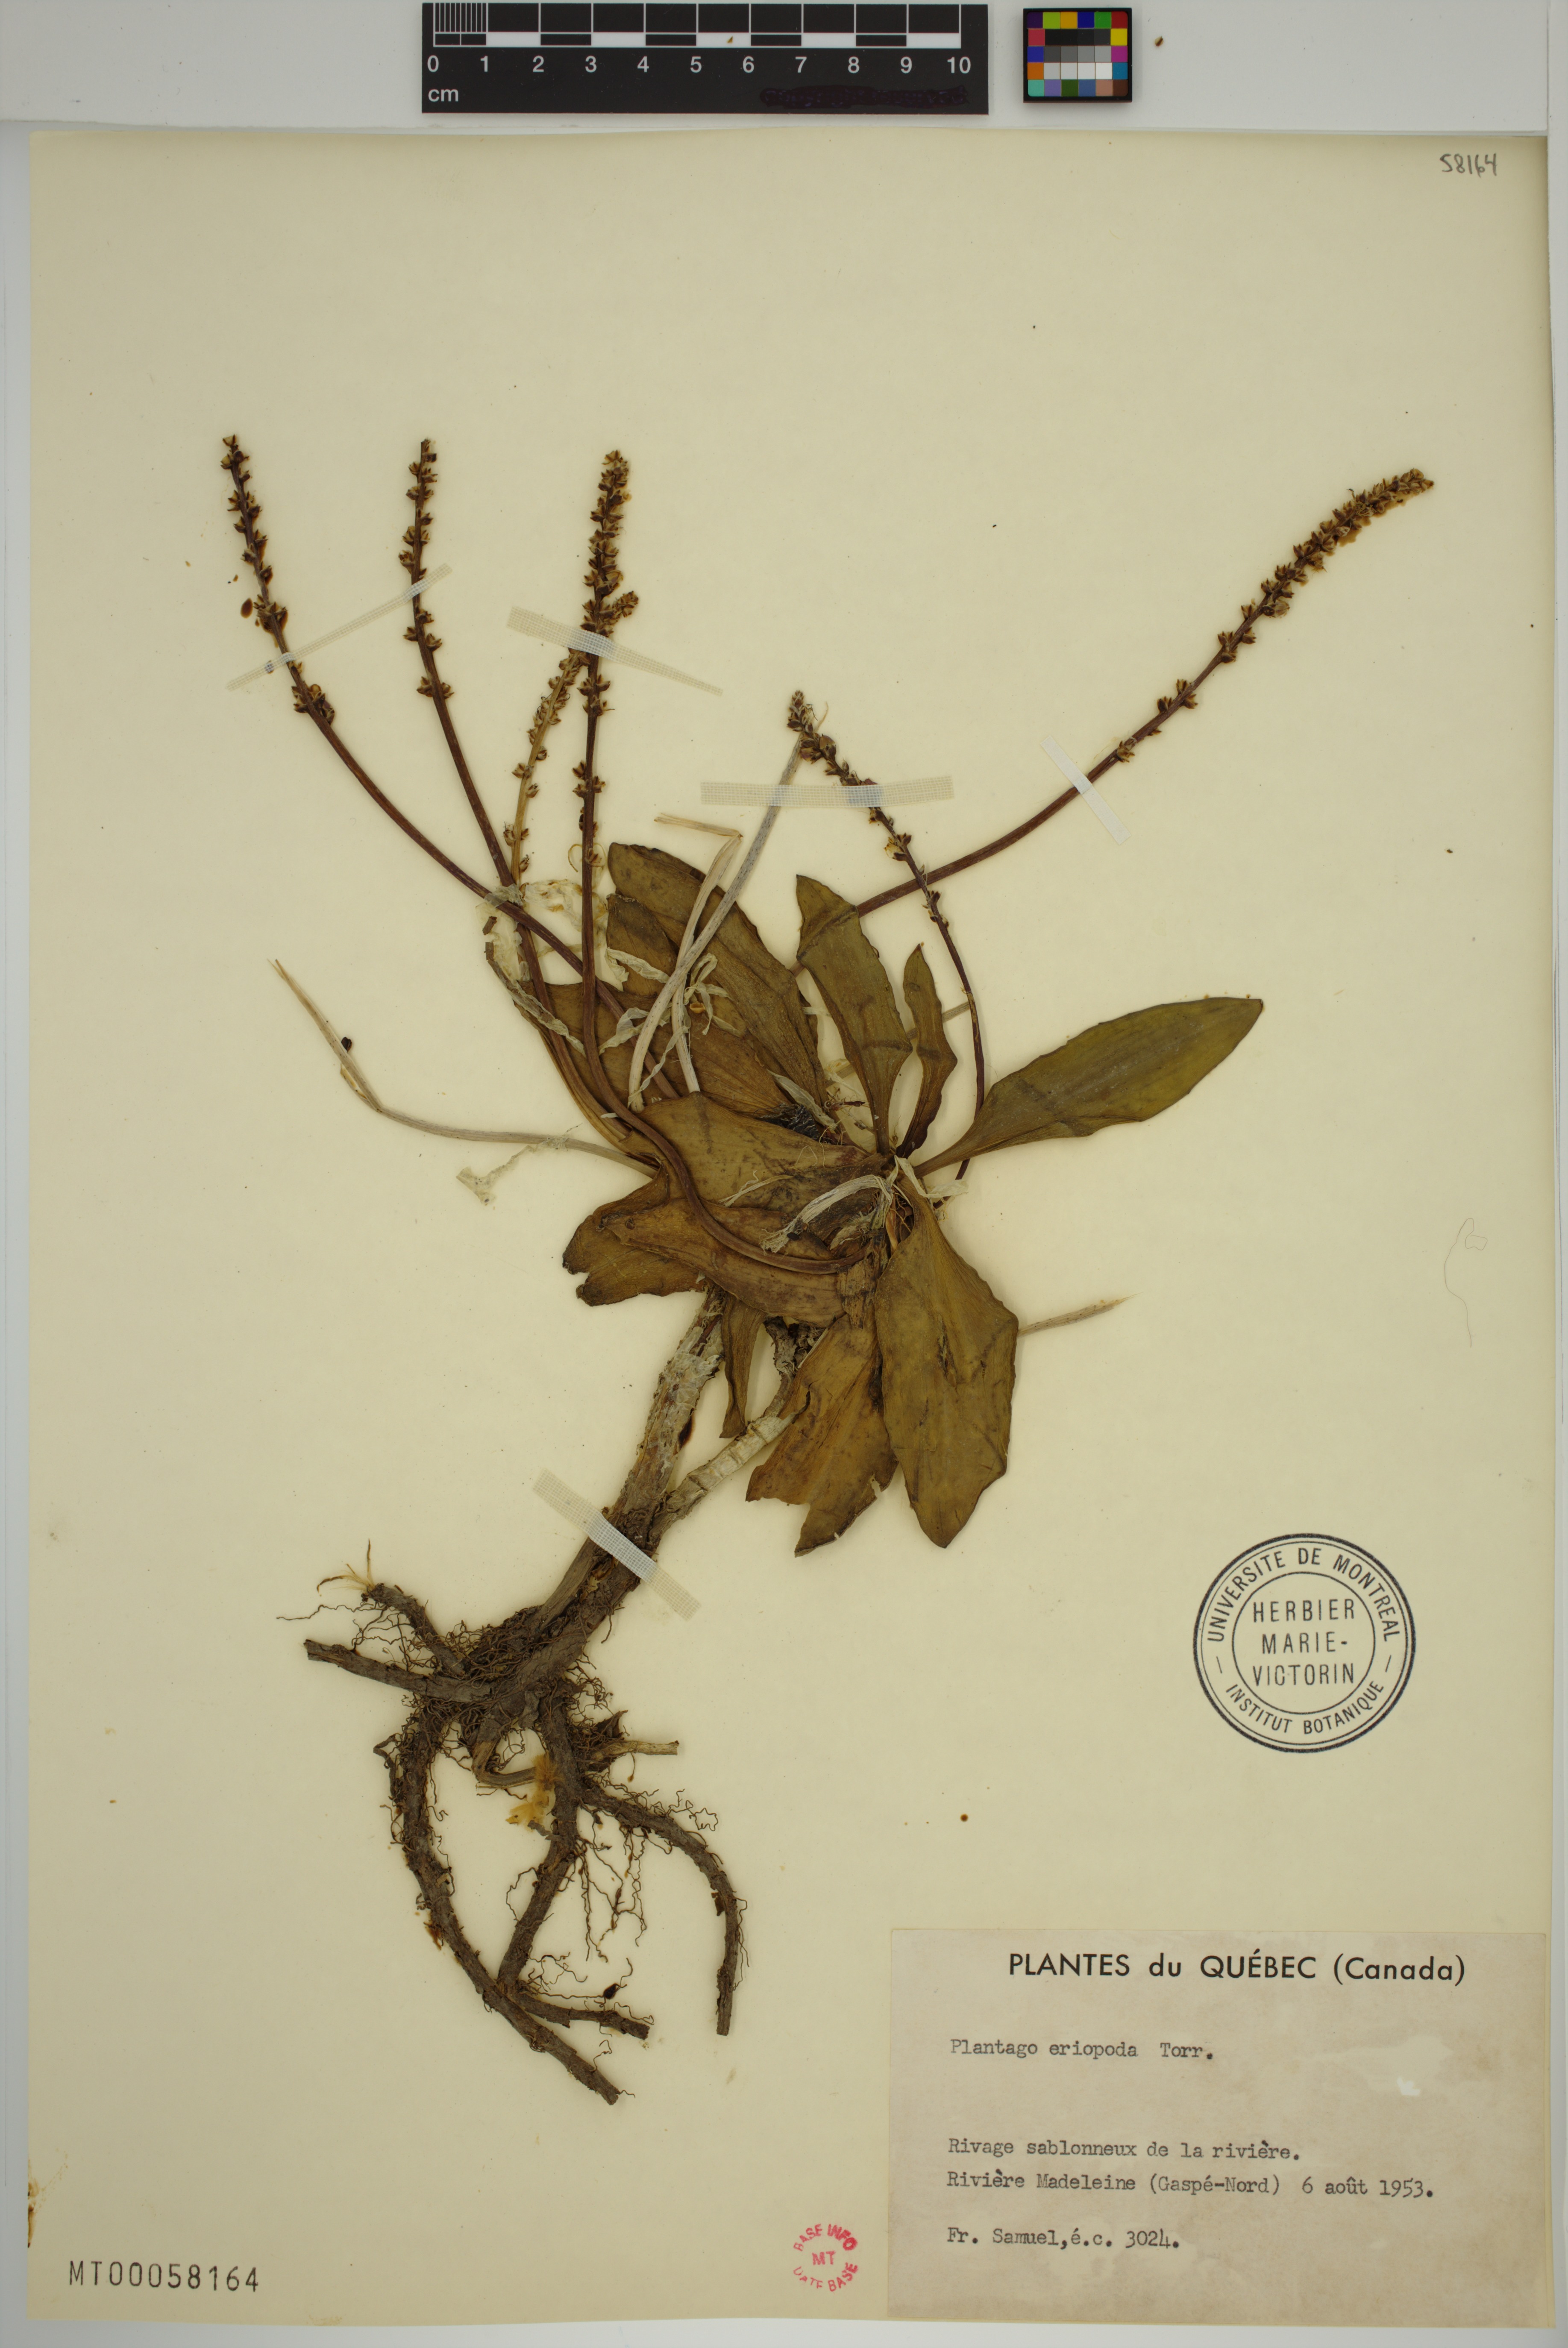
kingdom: Plantae
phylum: Tracheophyta
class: Magnoliopsida
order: Lamiales
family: Plantaginaceae
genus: Plantago
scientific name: Plantago eriopoda
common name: Alkali plantain
